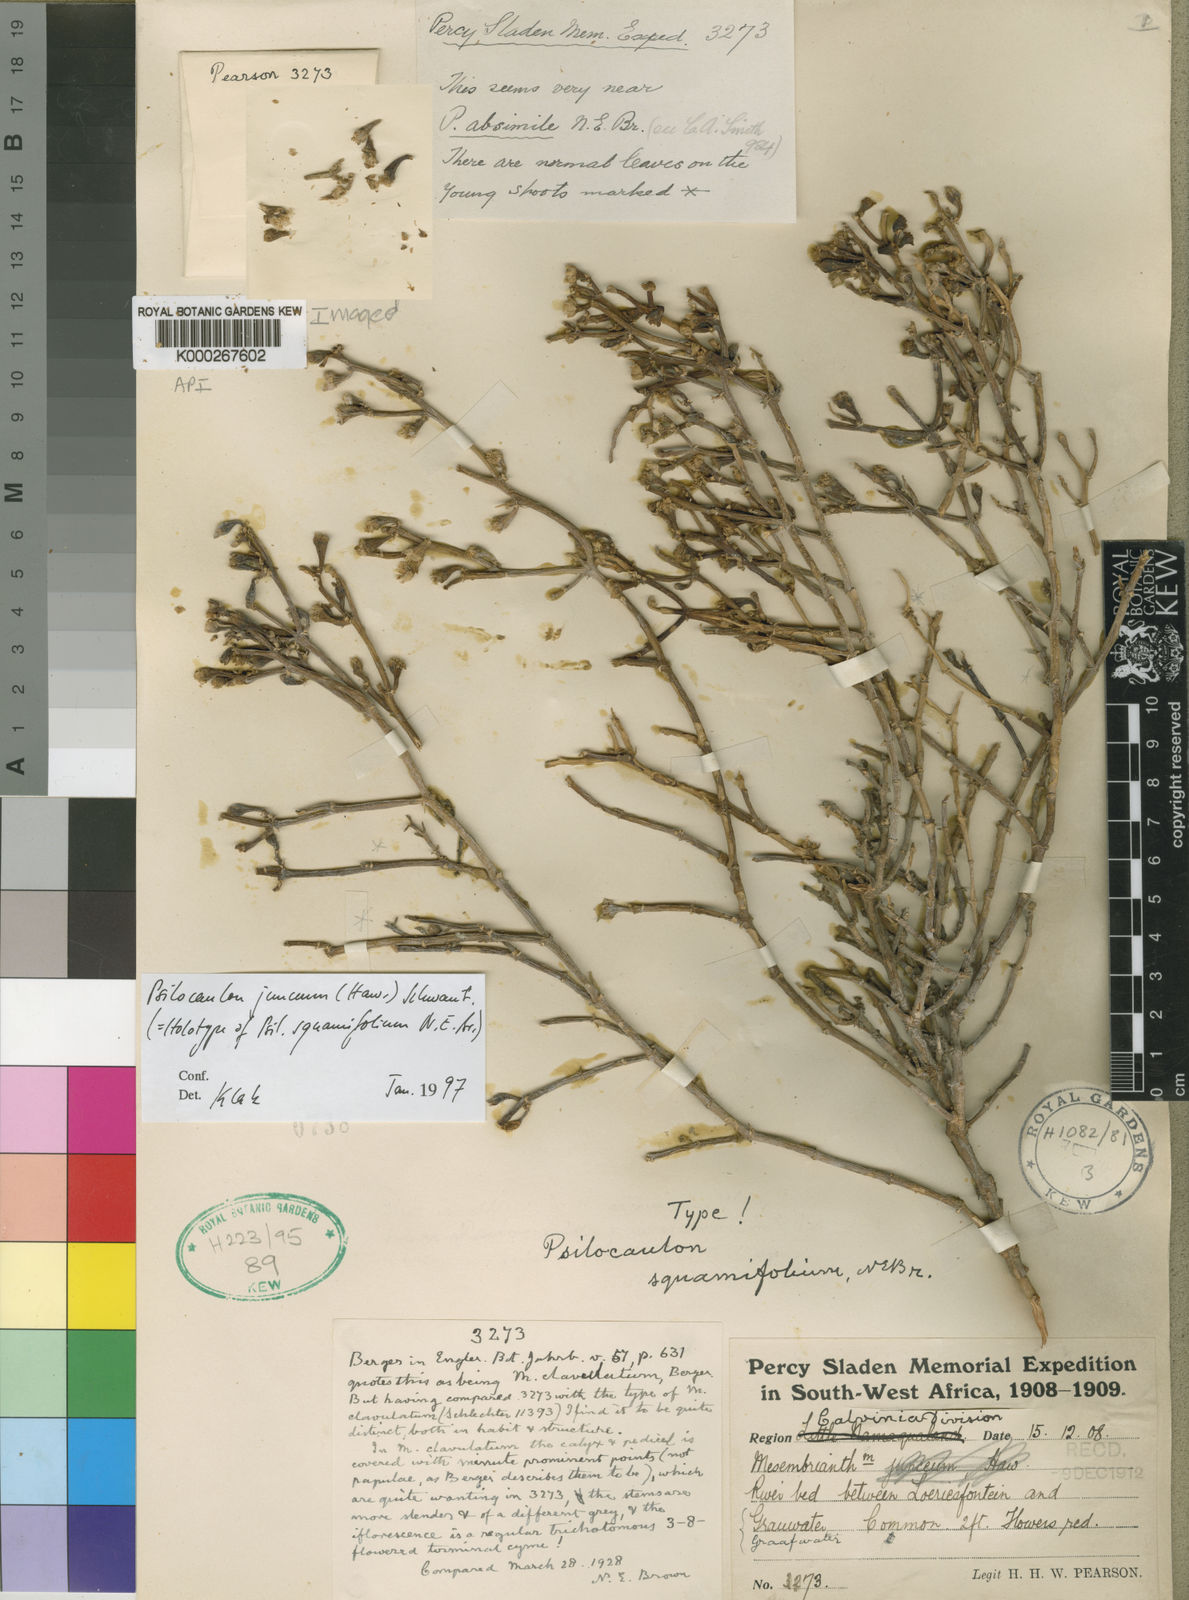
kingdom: Plantae
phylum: Tracheophyta
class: Magnoliopsida
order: Caryophyllales
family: Aizoaceae
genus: Mesembryanthemum
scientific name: Mesembryanthemum junceum
